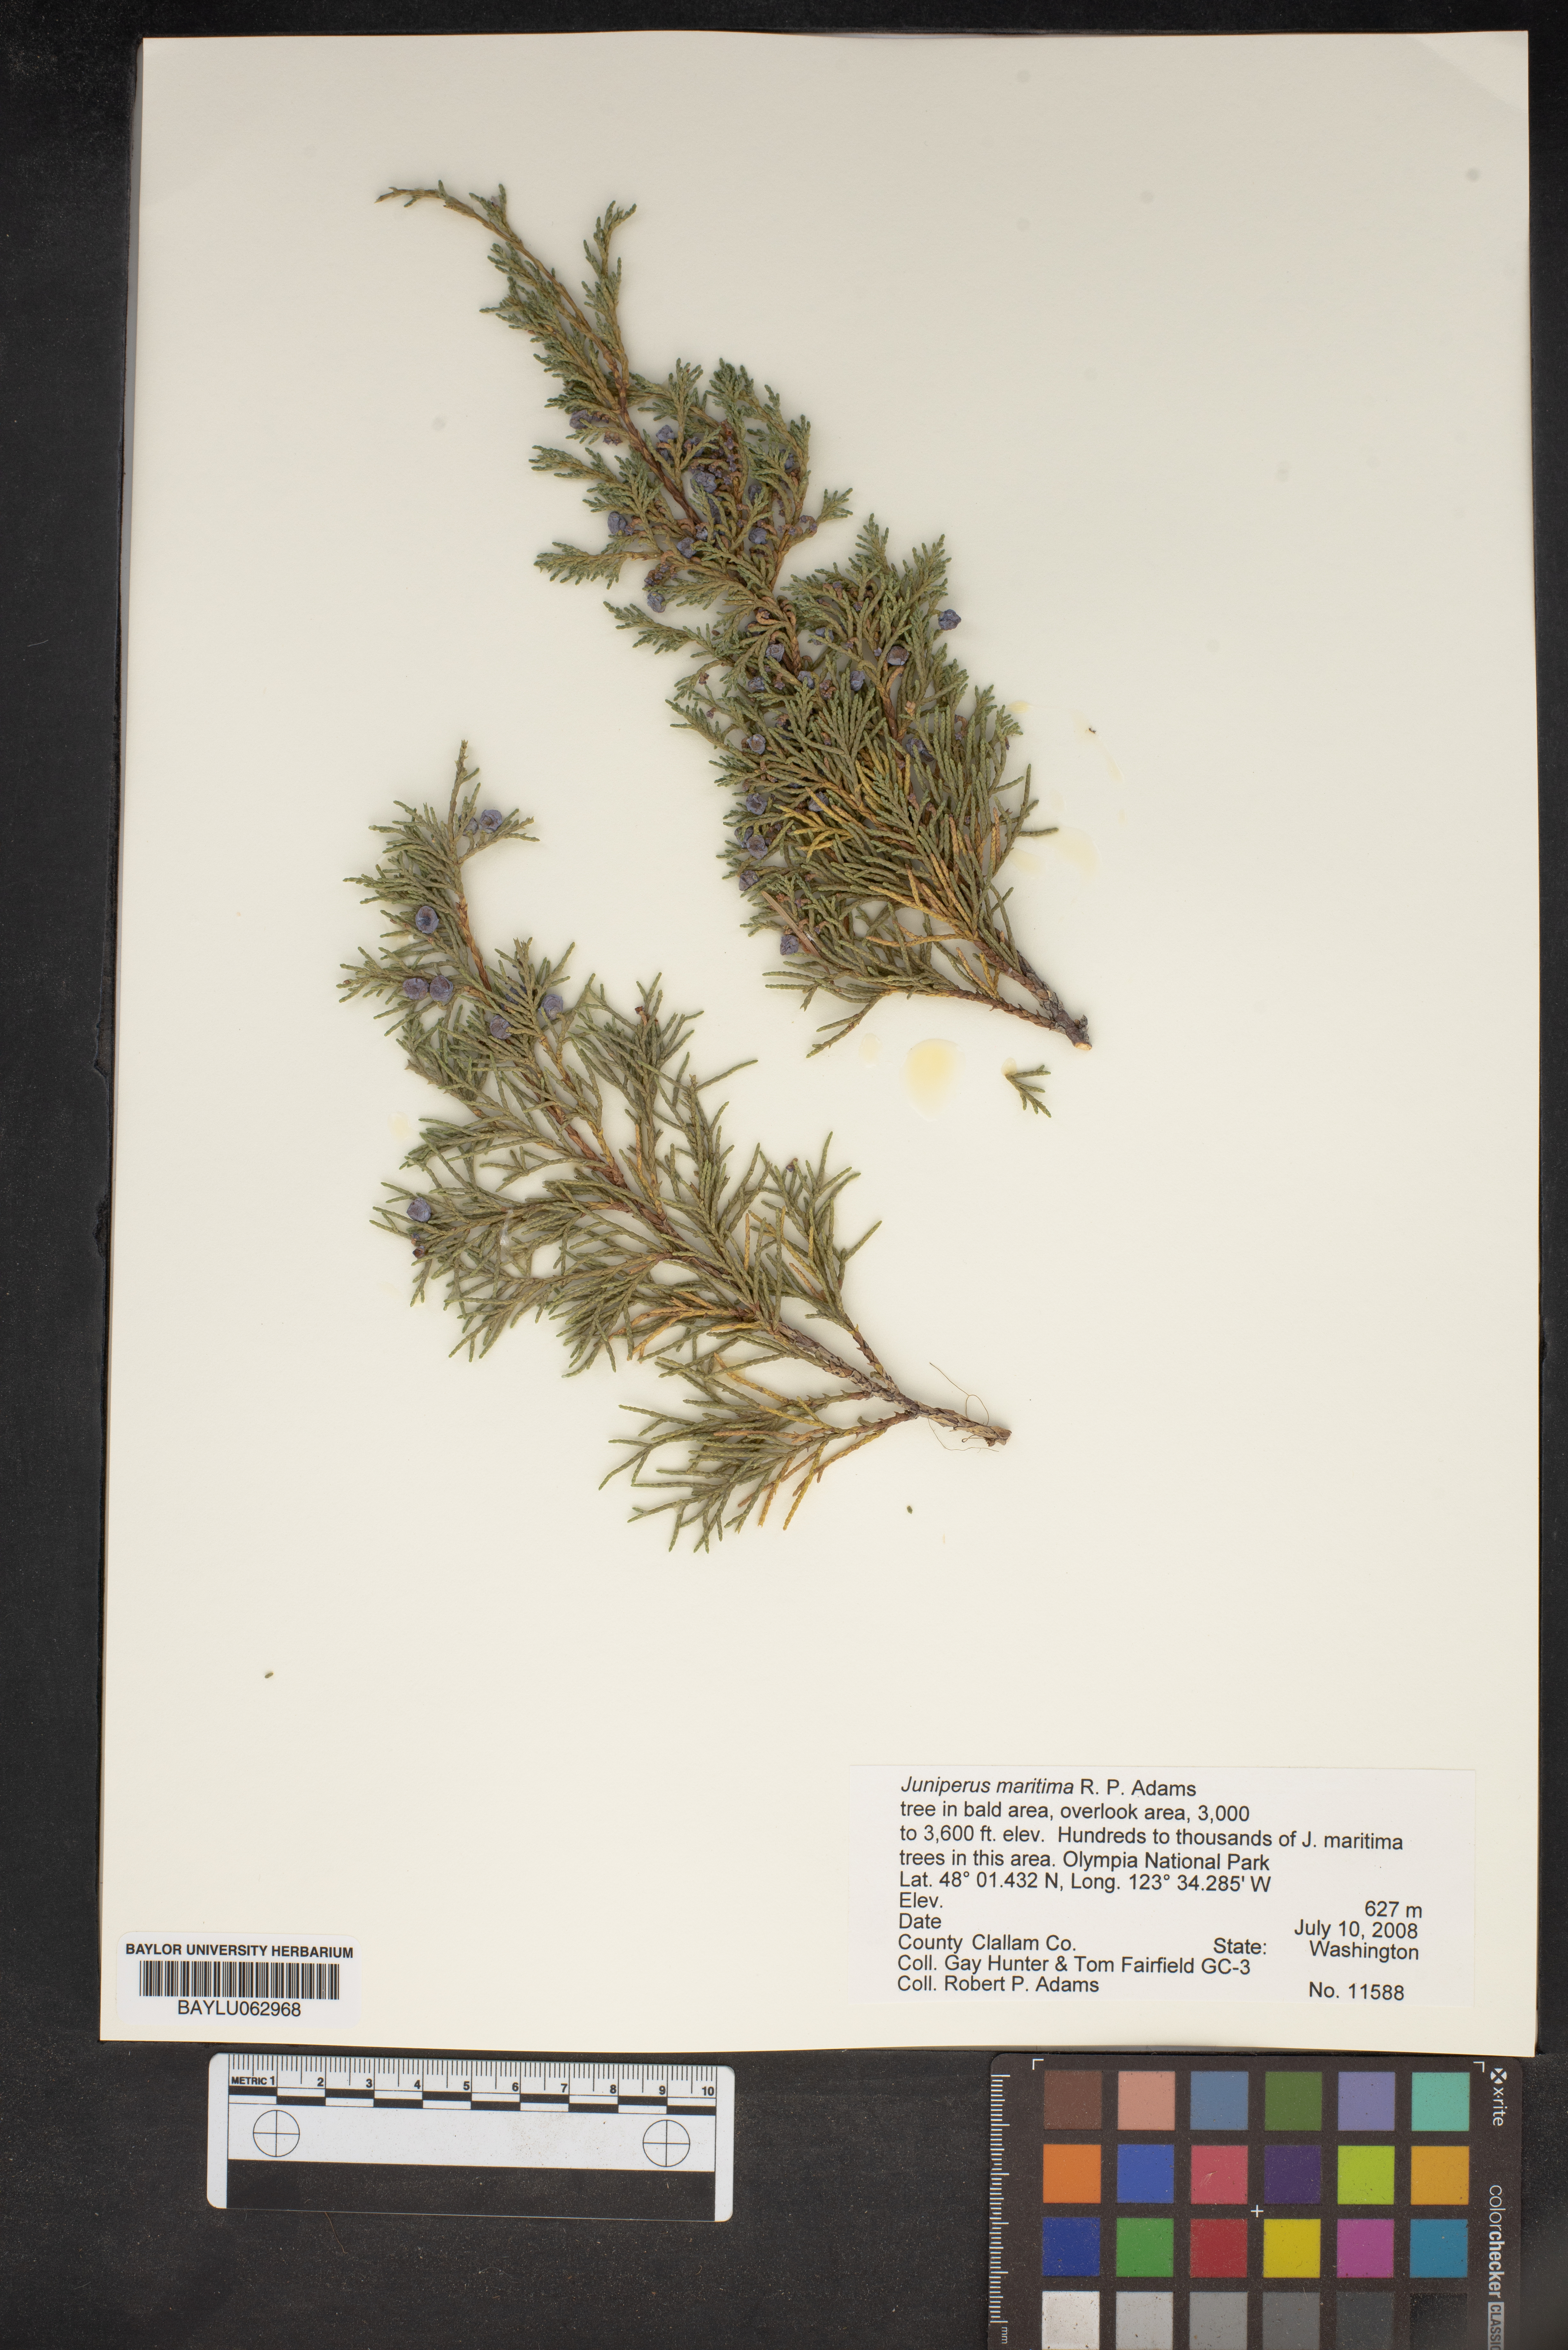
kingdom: Plantae
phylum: Tracheophyta
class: Pinopsida
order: Pinales
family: Cupressaceae
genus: Juniperus
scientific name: Juniperus scopulorum
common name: Rocky mountain juniper
